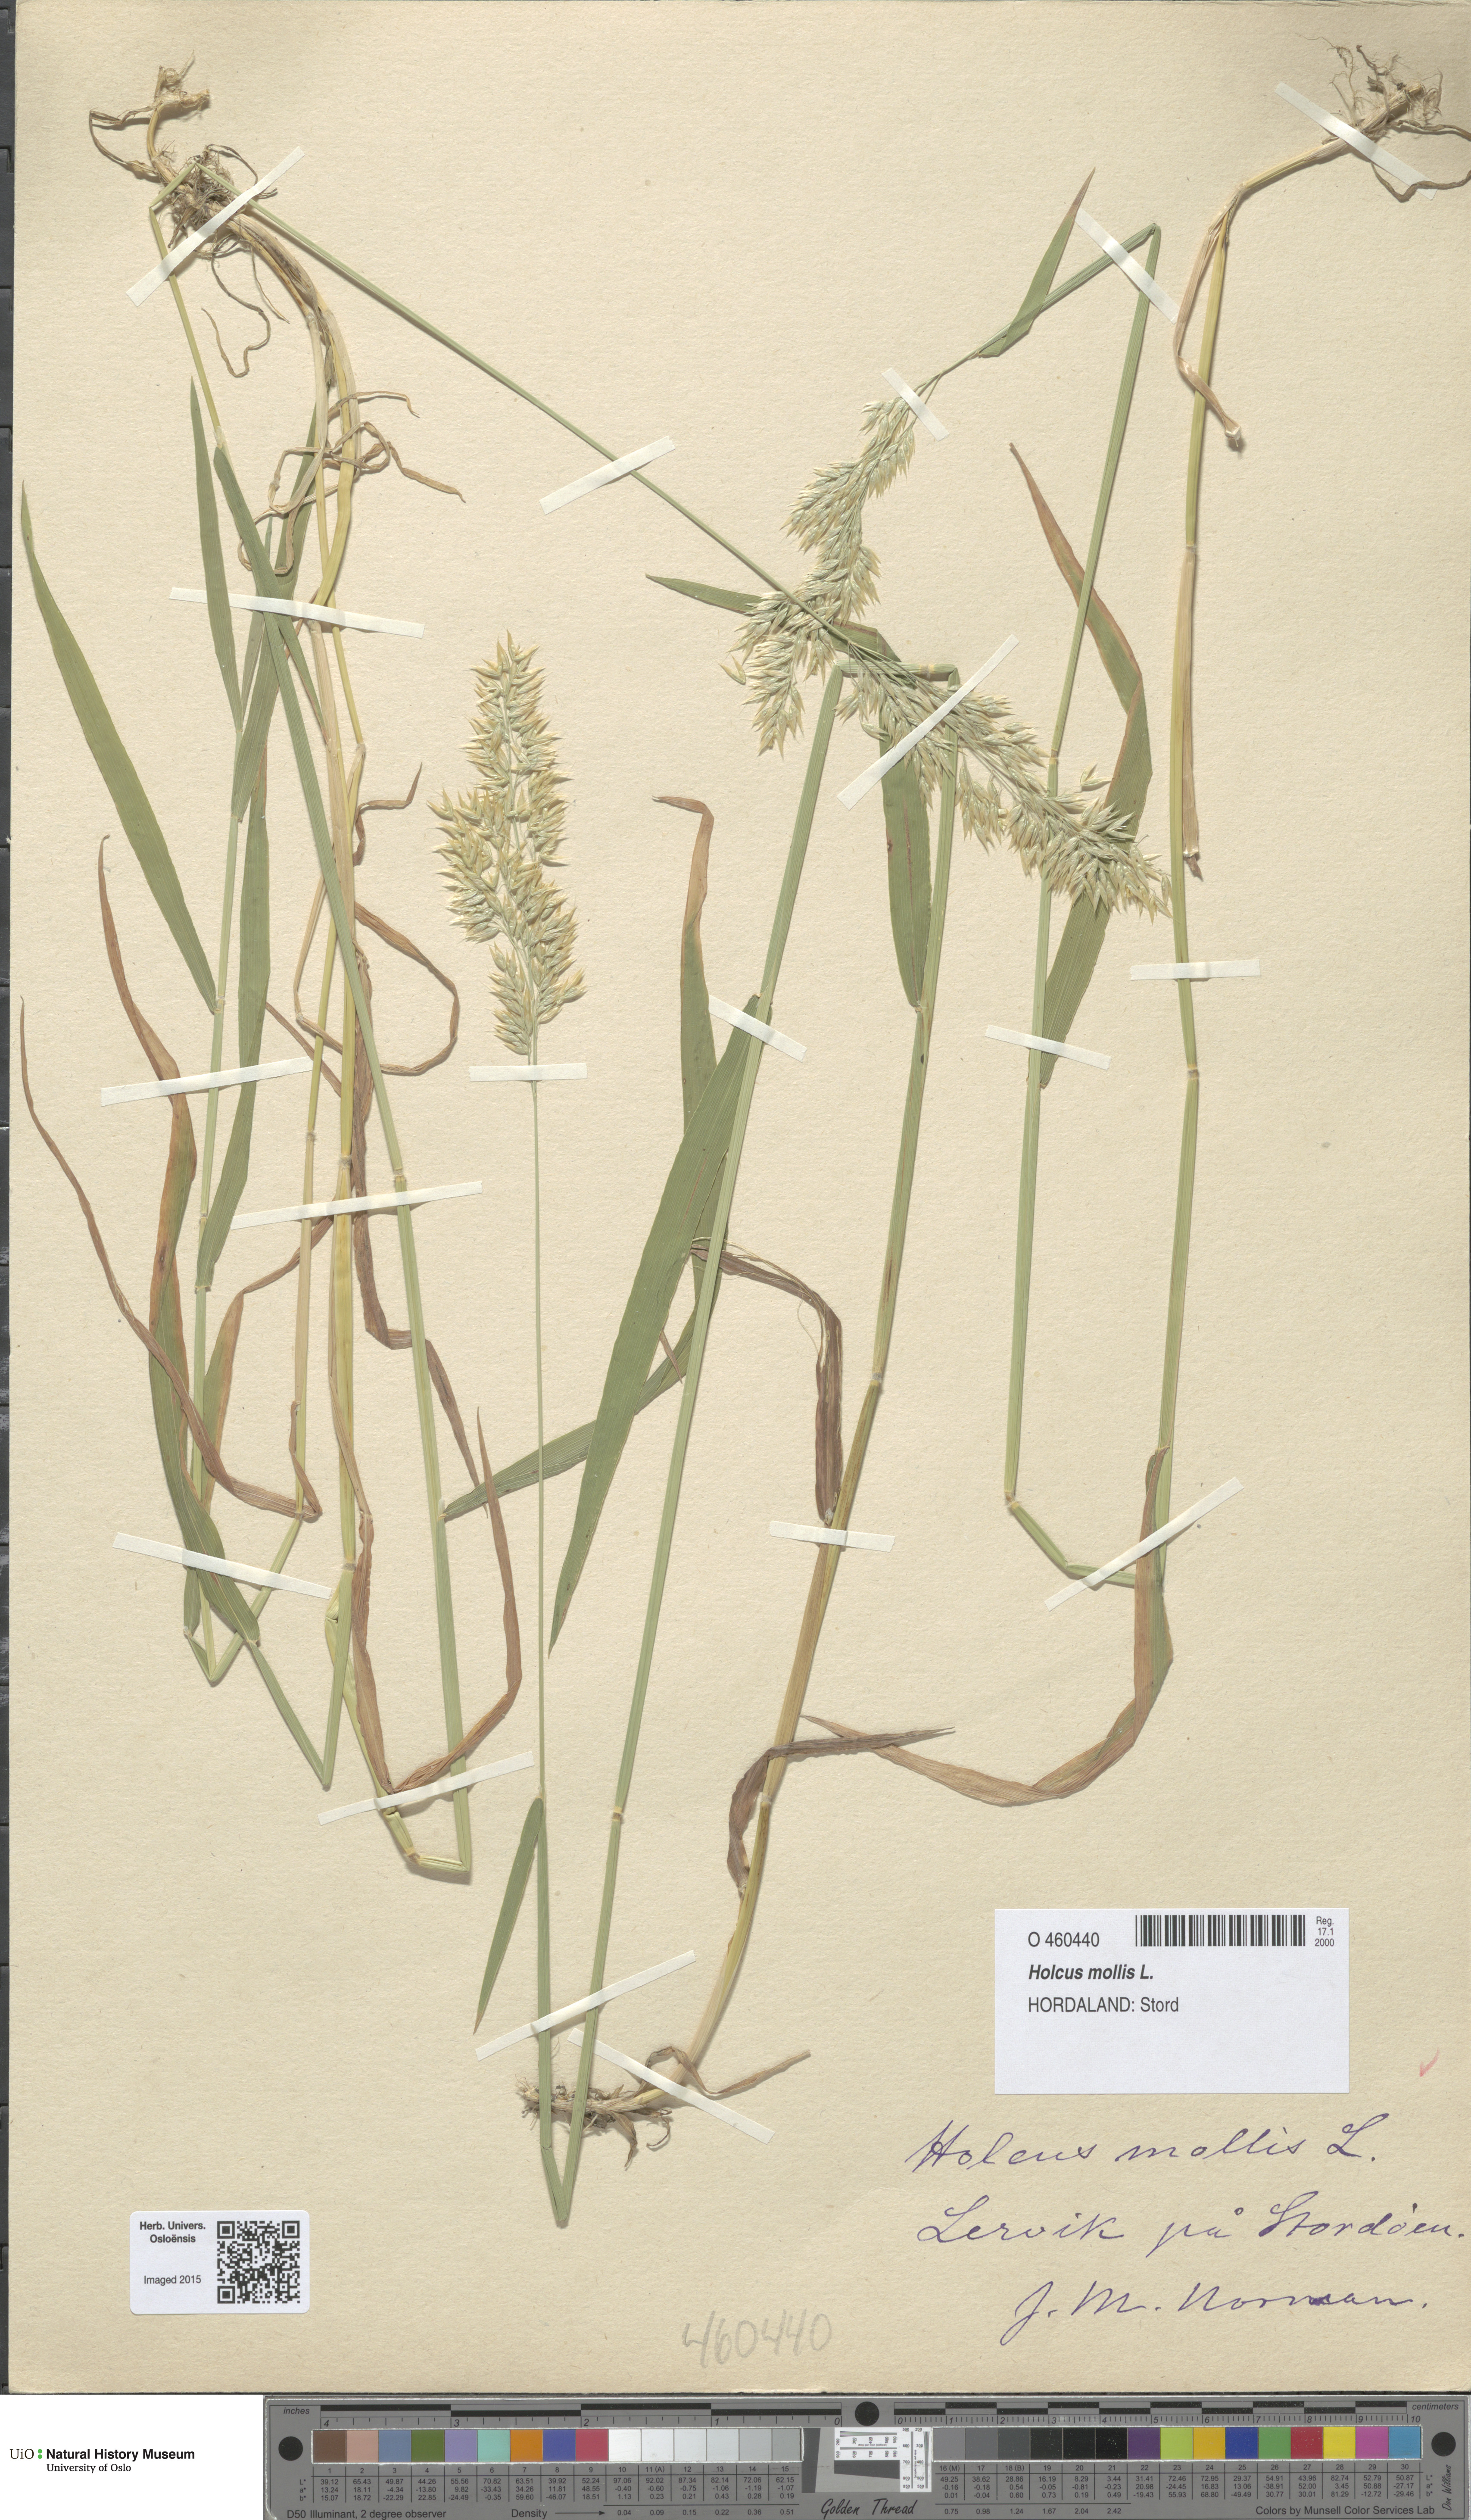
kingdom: Plantae
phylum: Tracheophyta
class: Liliopsida
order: Poales
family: Poaceae
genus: Holcus
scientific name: Holcus mollis
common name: Creeping velvetgrass
